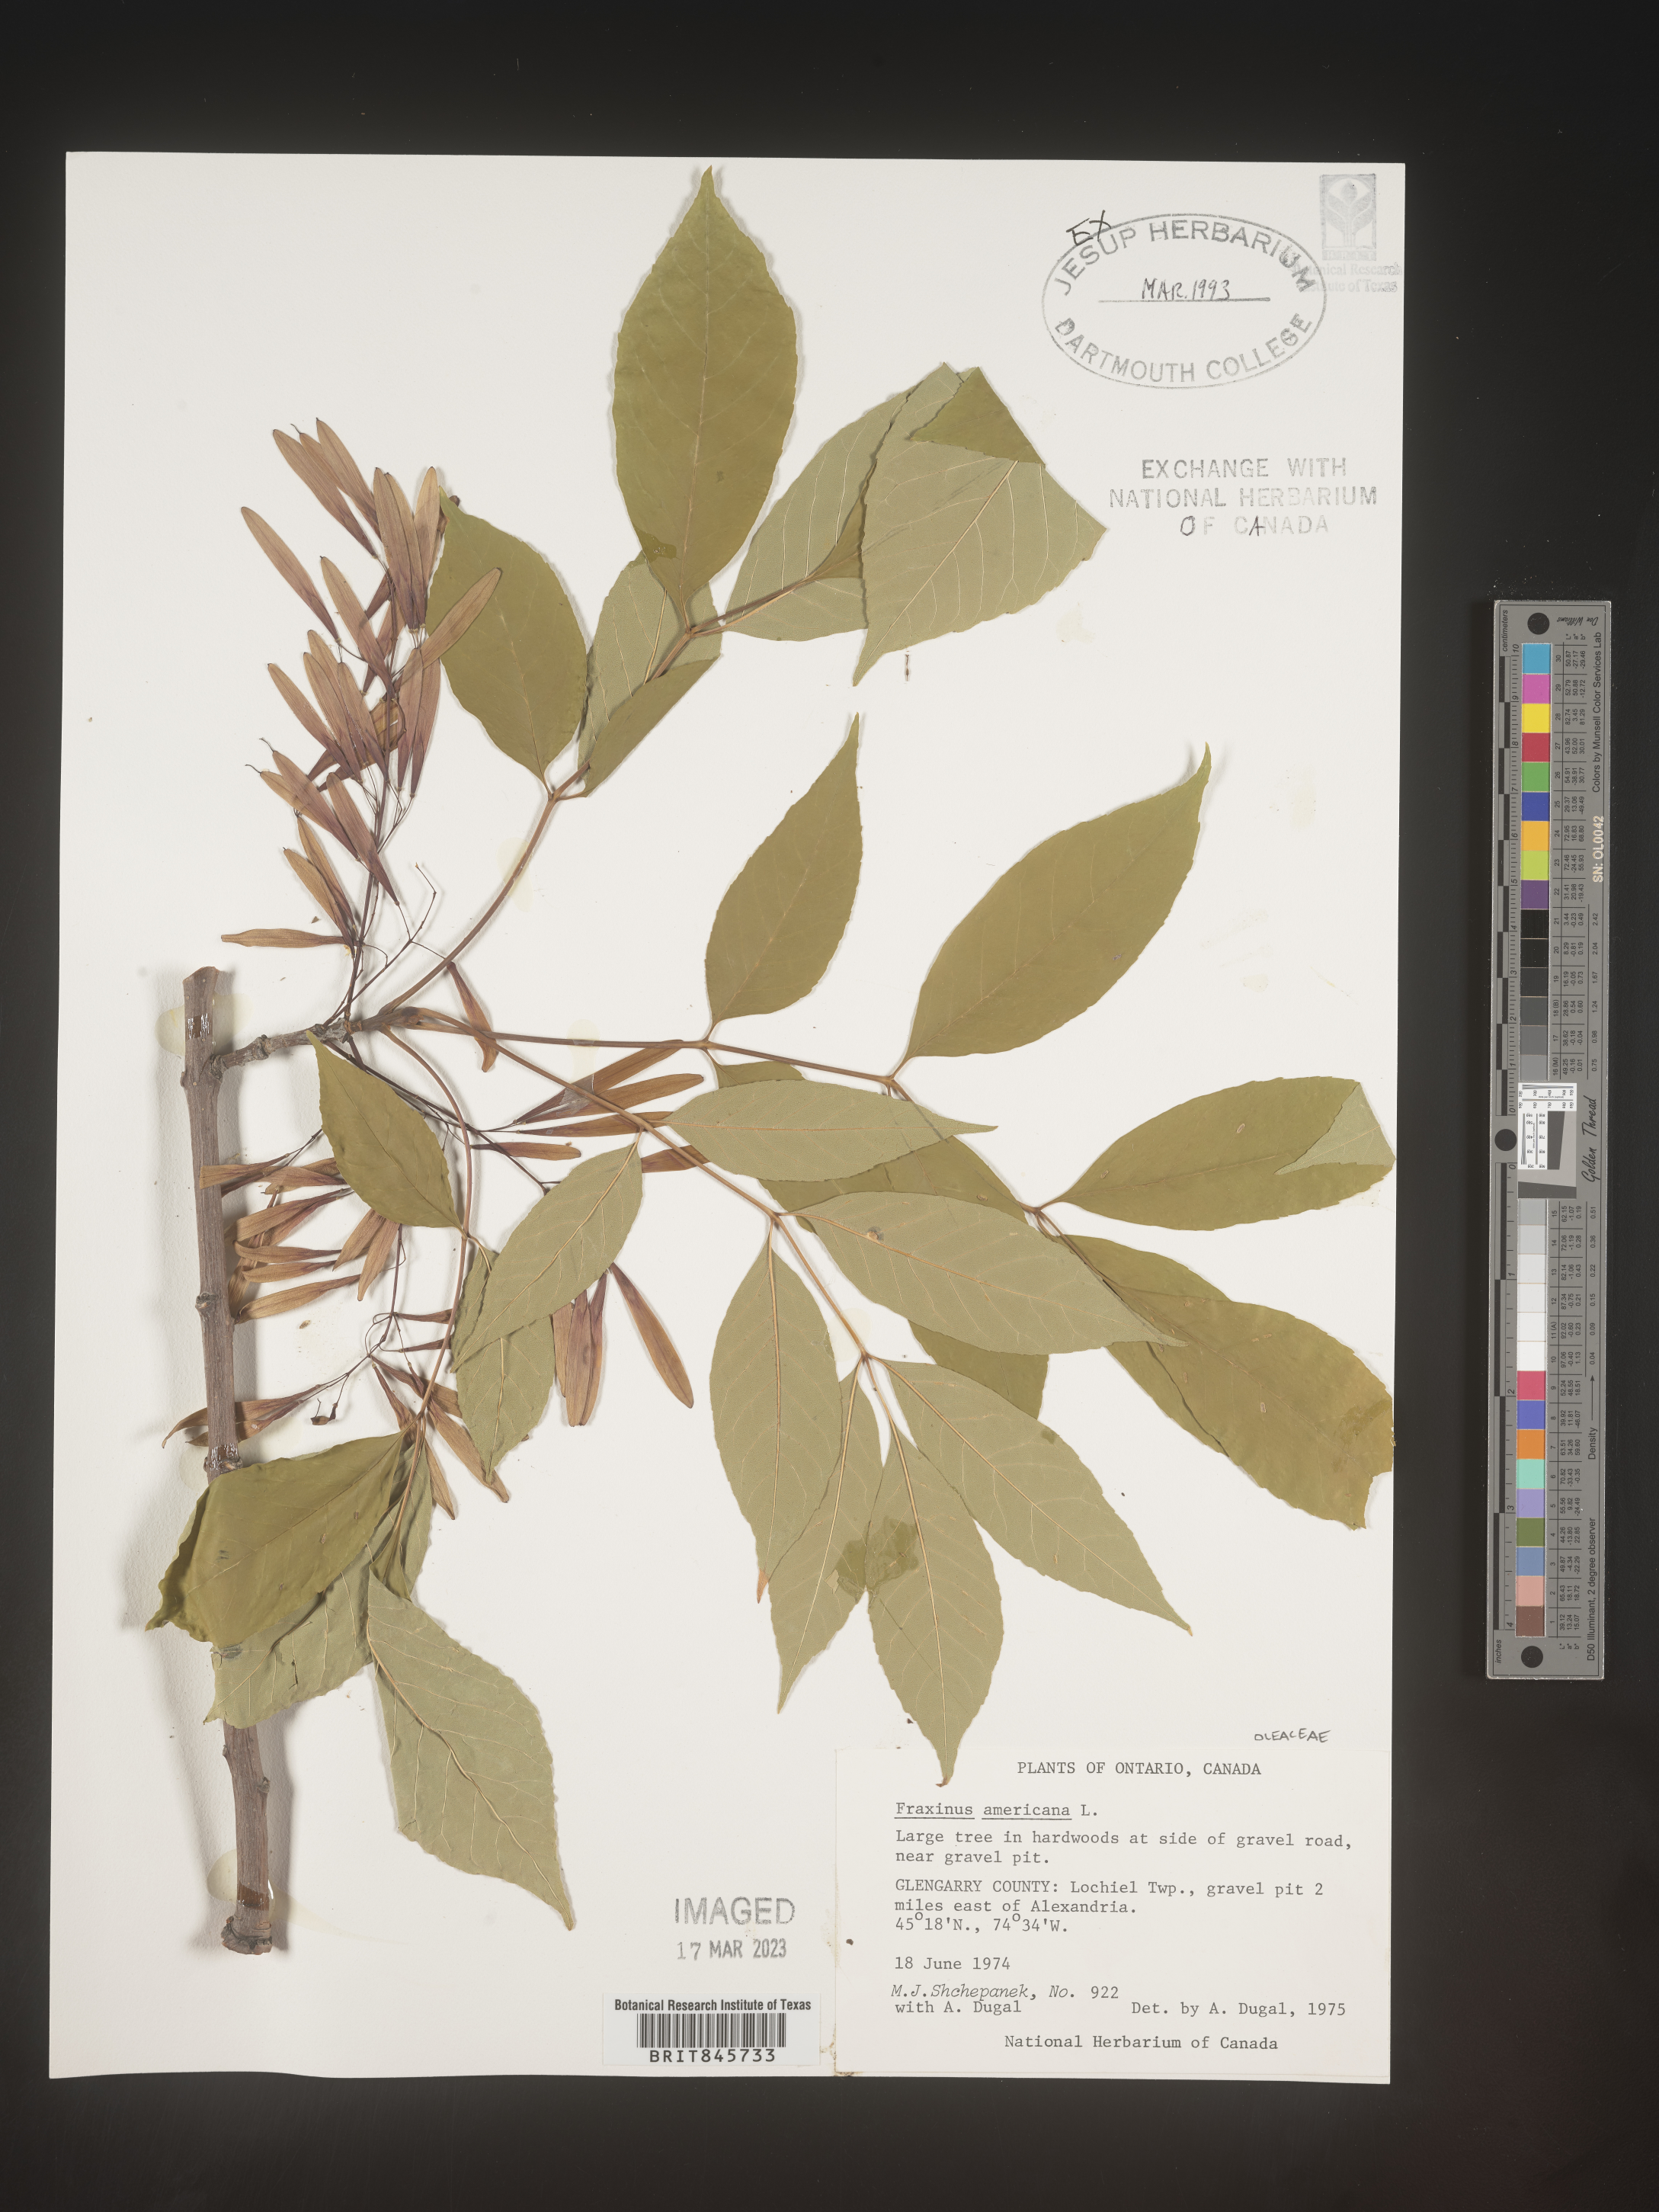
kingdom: Plantae
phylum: Tracheophyta
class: Magnoliopsida
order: Lamiales
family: Oleaceae
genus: Fraxinus
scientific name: Fraxinus americana
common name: White ash
